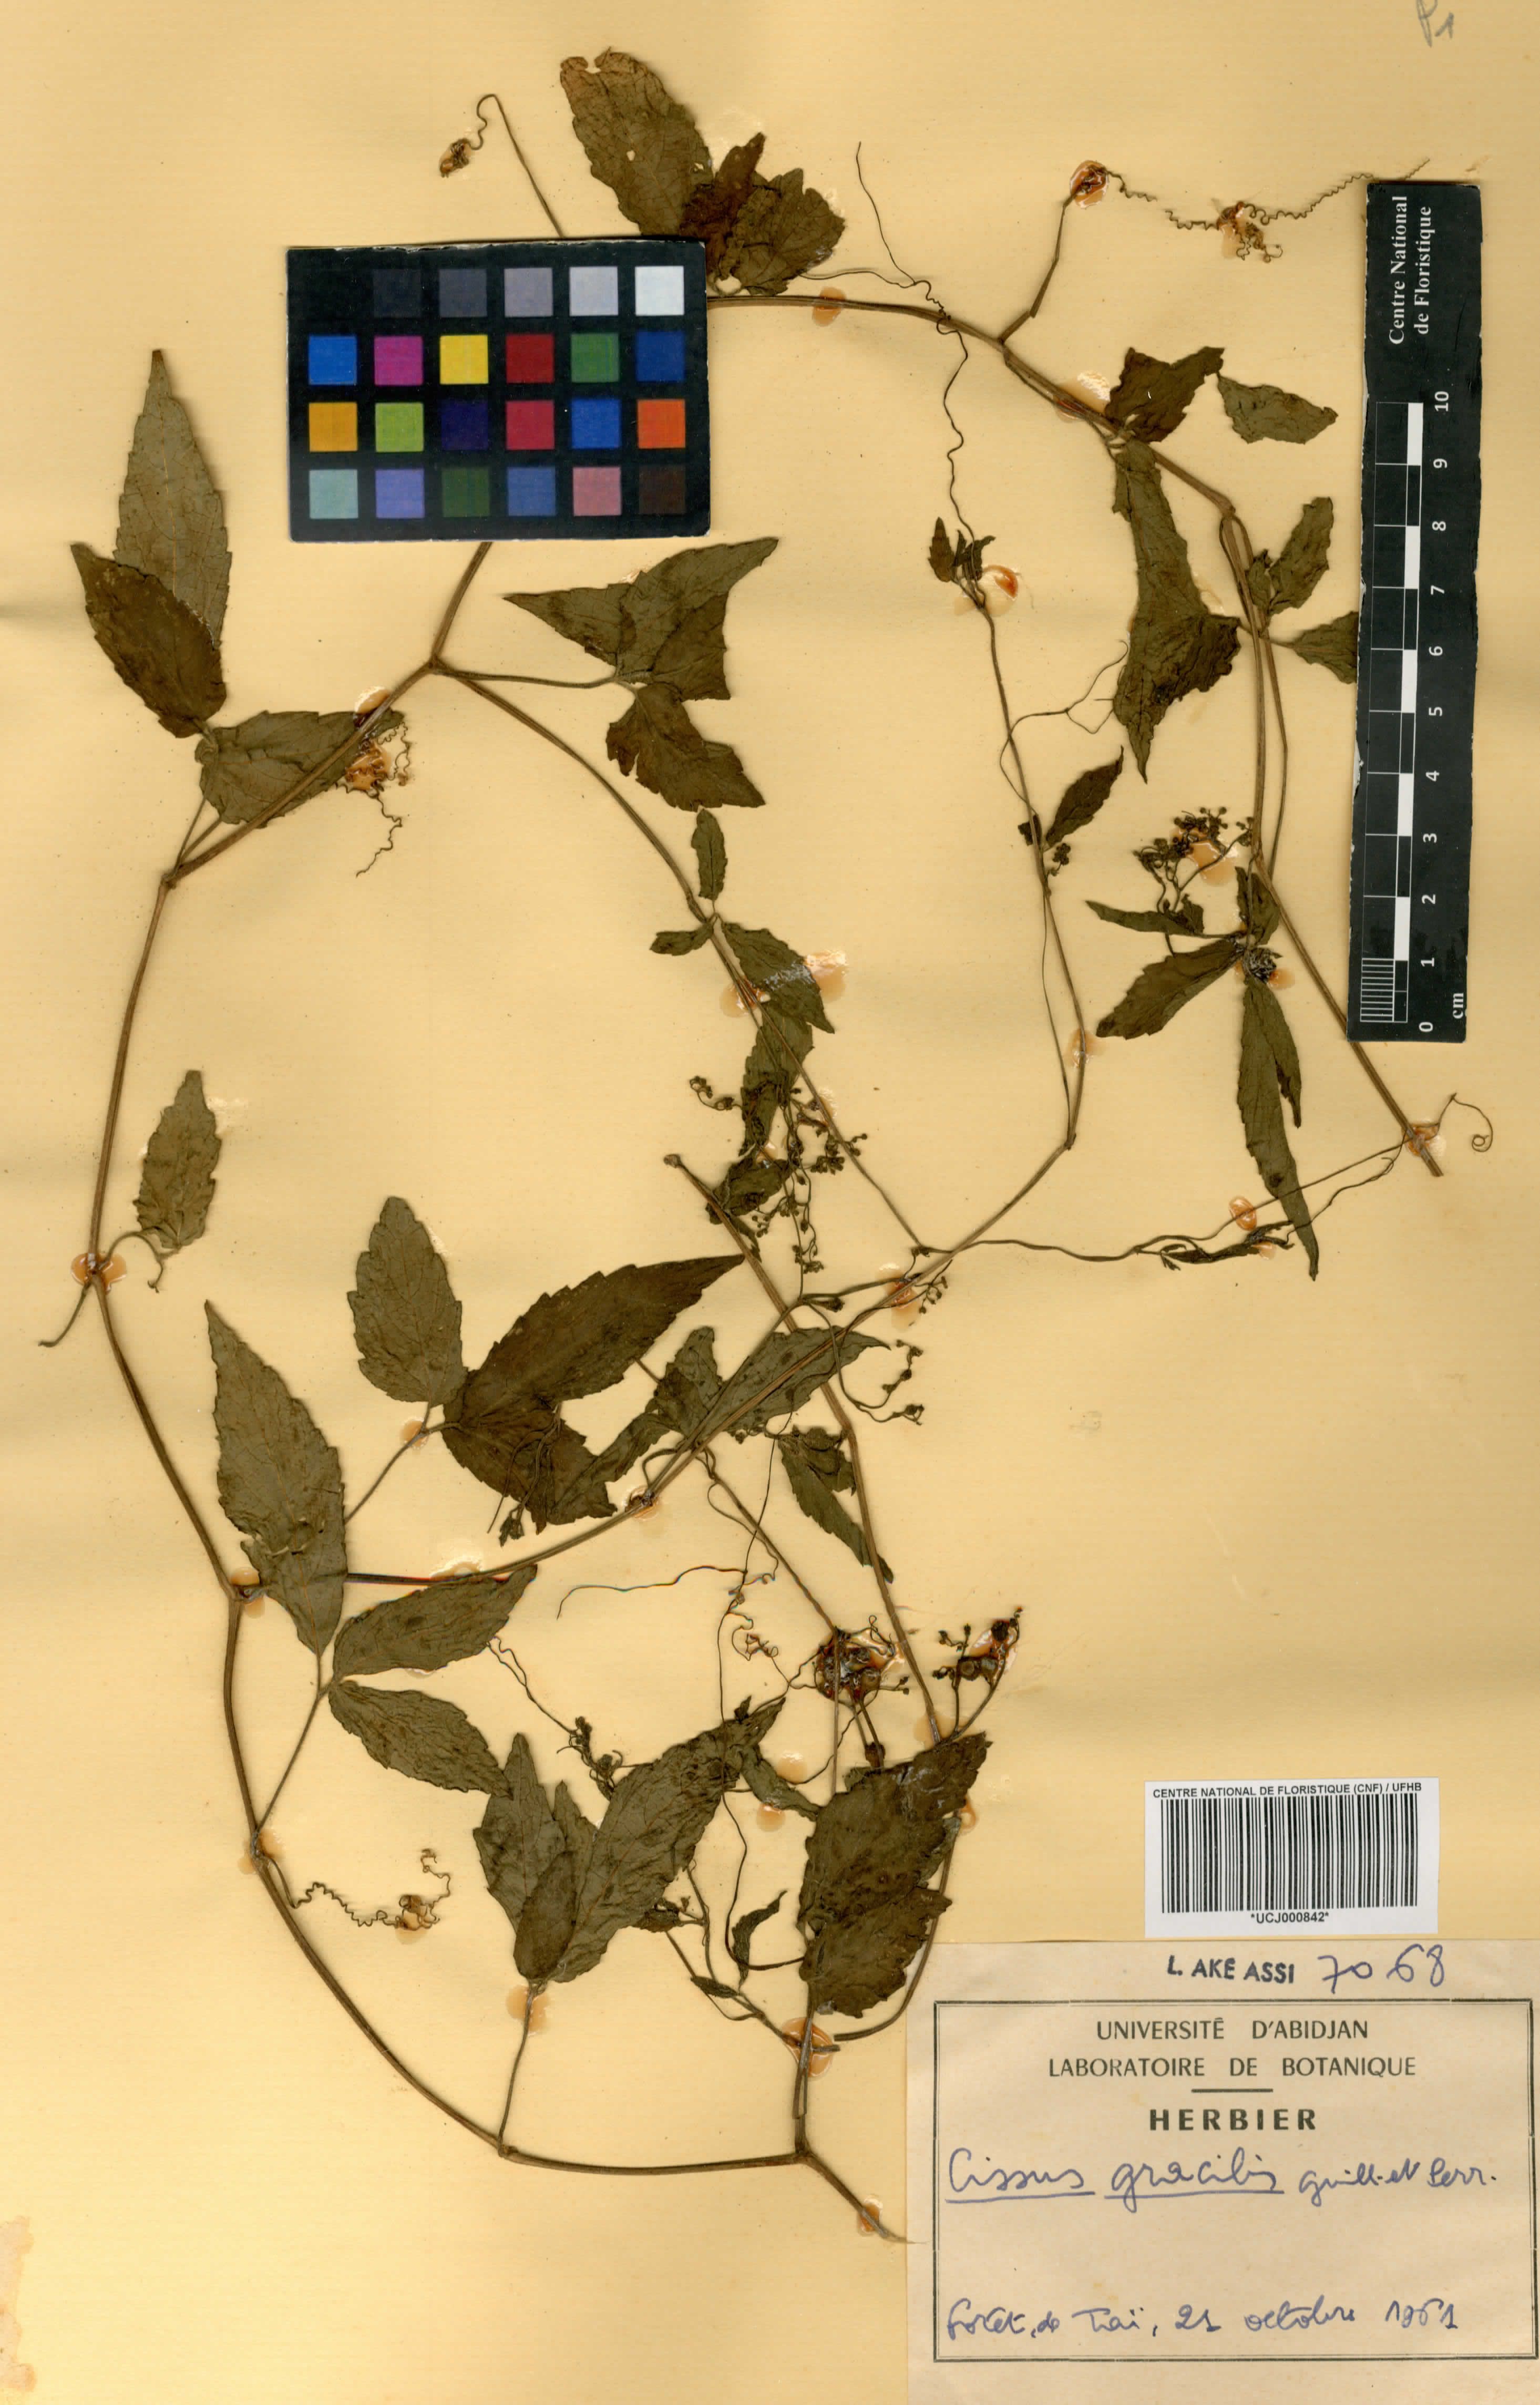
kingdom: Plantae
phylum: Tracheophyta
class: Magnoliopsida
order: Vitales
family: Vitaceae
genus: Afrocayratia
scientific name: Afrocayratia gracilis
